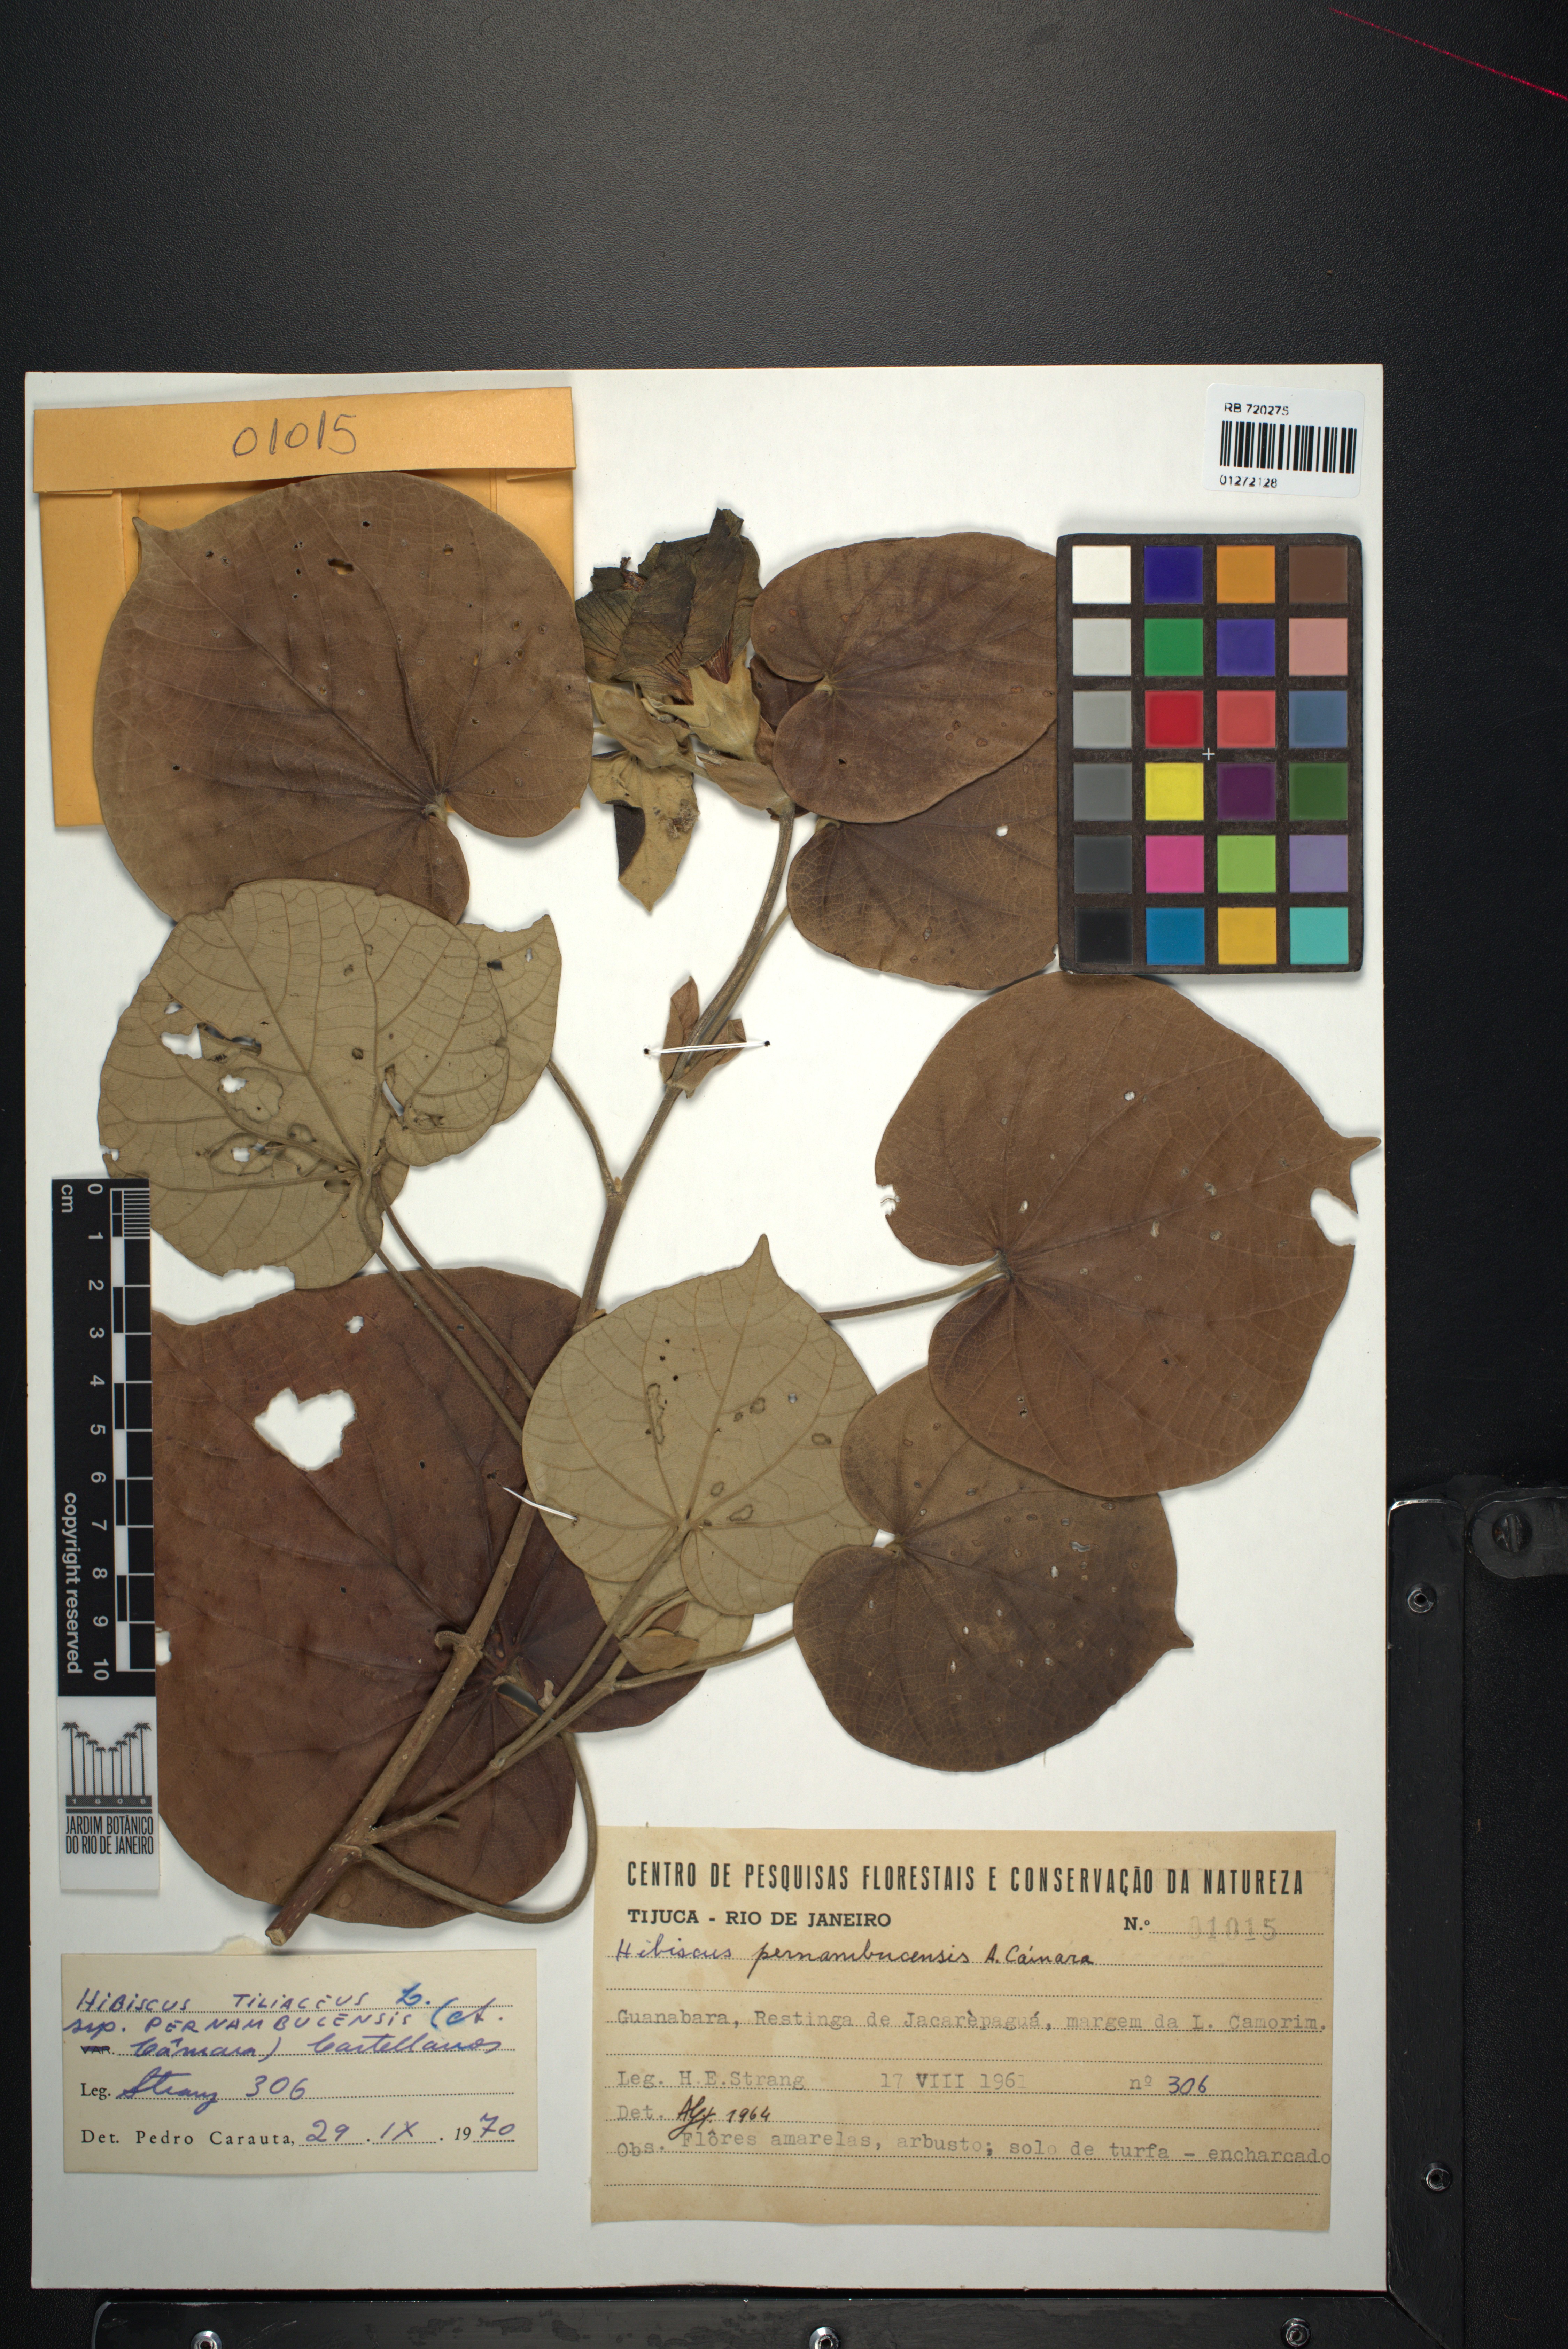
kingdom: Plantae
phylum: Tracheophyta
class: Magnoliopsida
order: Malvales
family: Malvaceae
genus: Talipariti
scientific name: Talipariti pernambucense
